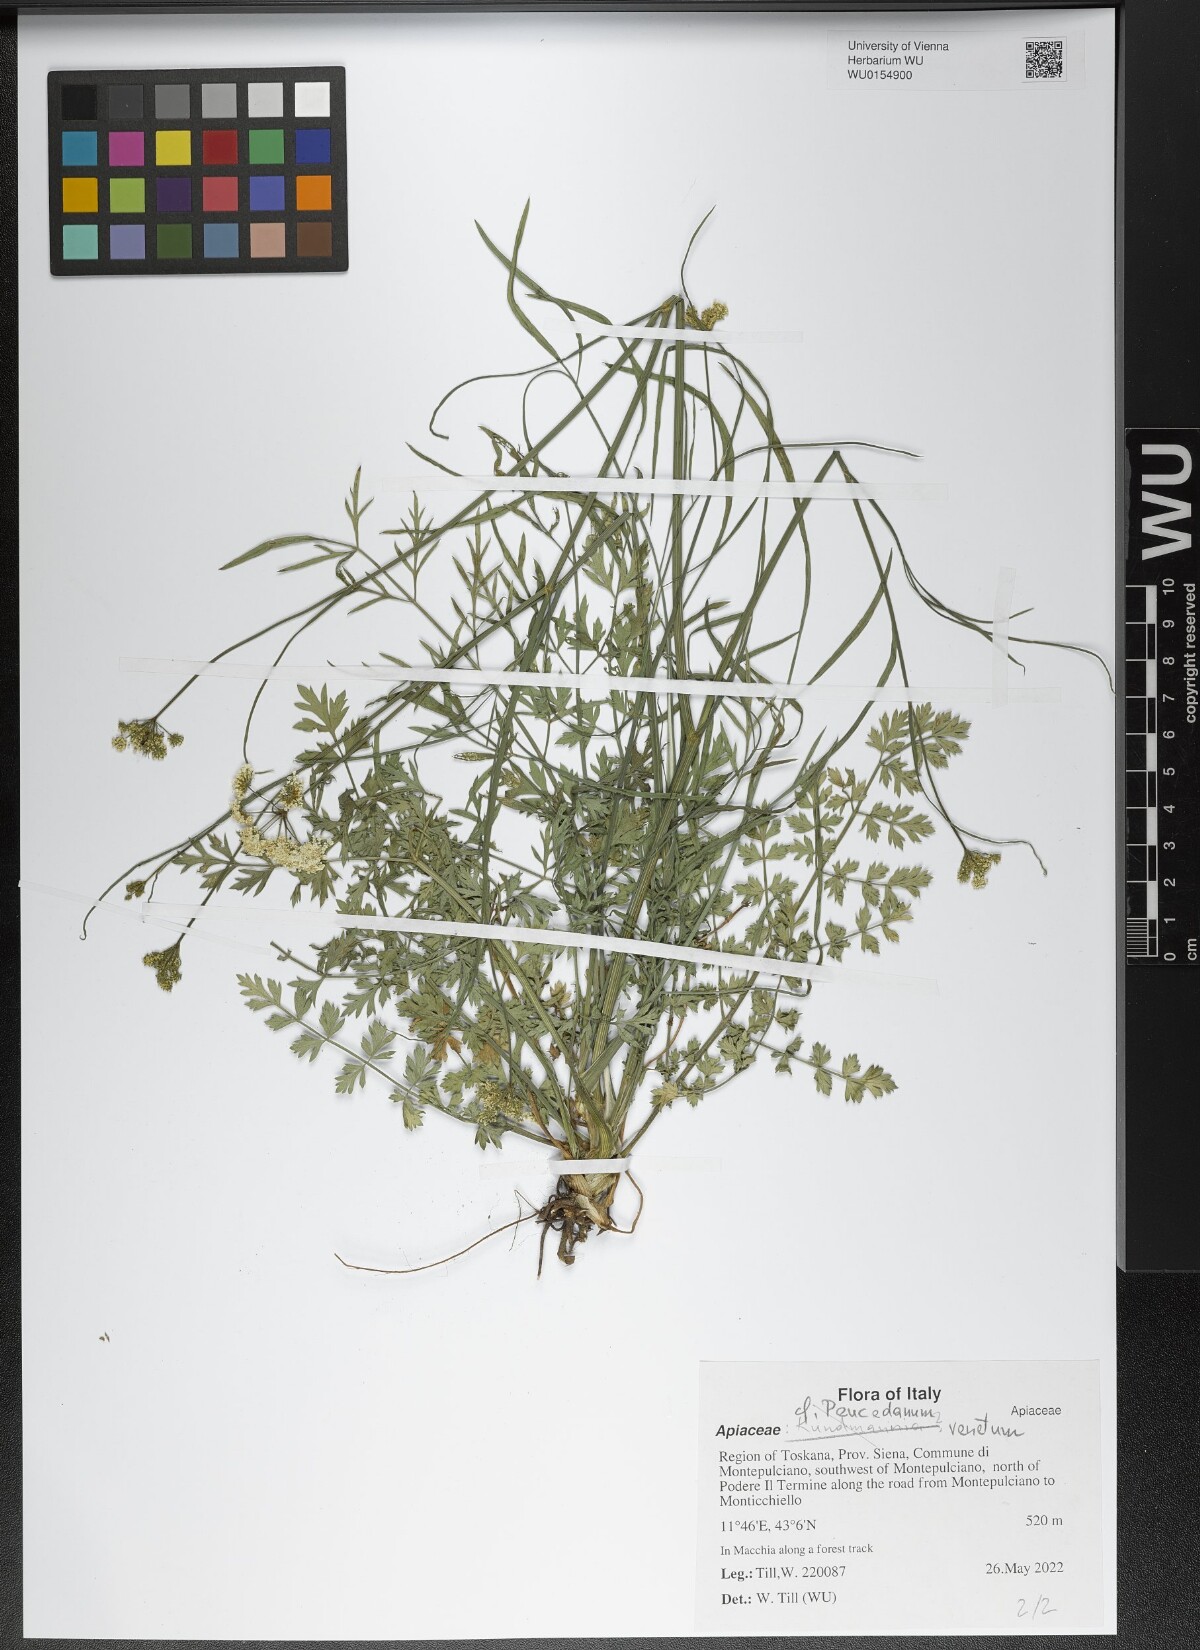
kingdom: Plantae
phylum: Tracheophyta
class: Magnoliopsida
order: Apiales
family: Apiaceae
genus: Xanthoselinum
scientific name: Xanthoselinum alsaticum
